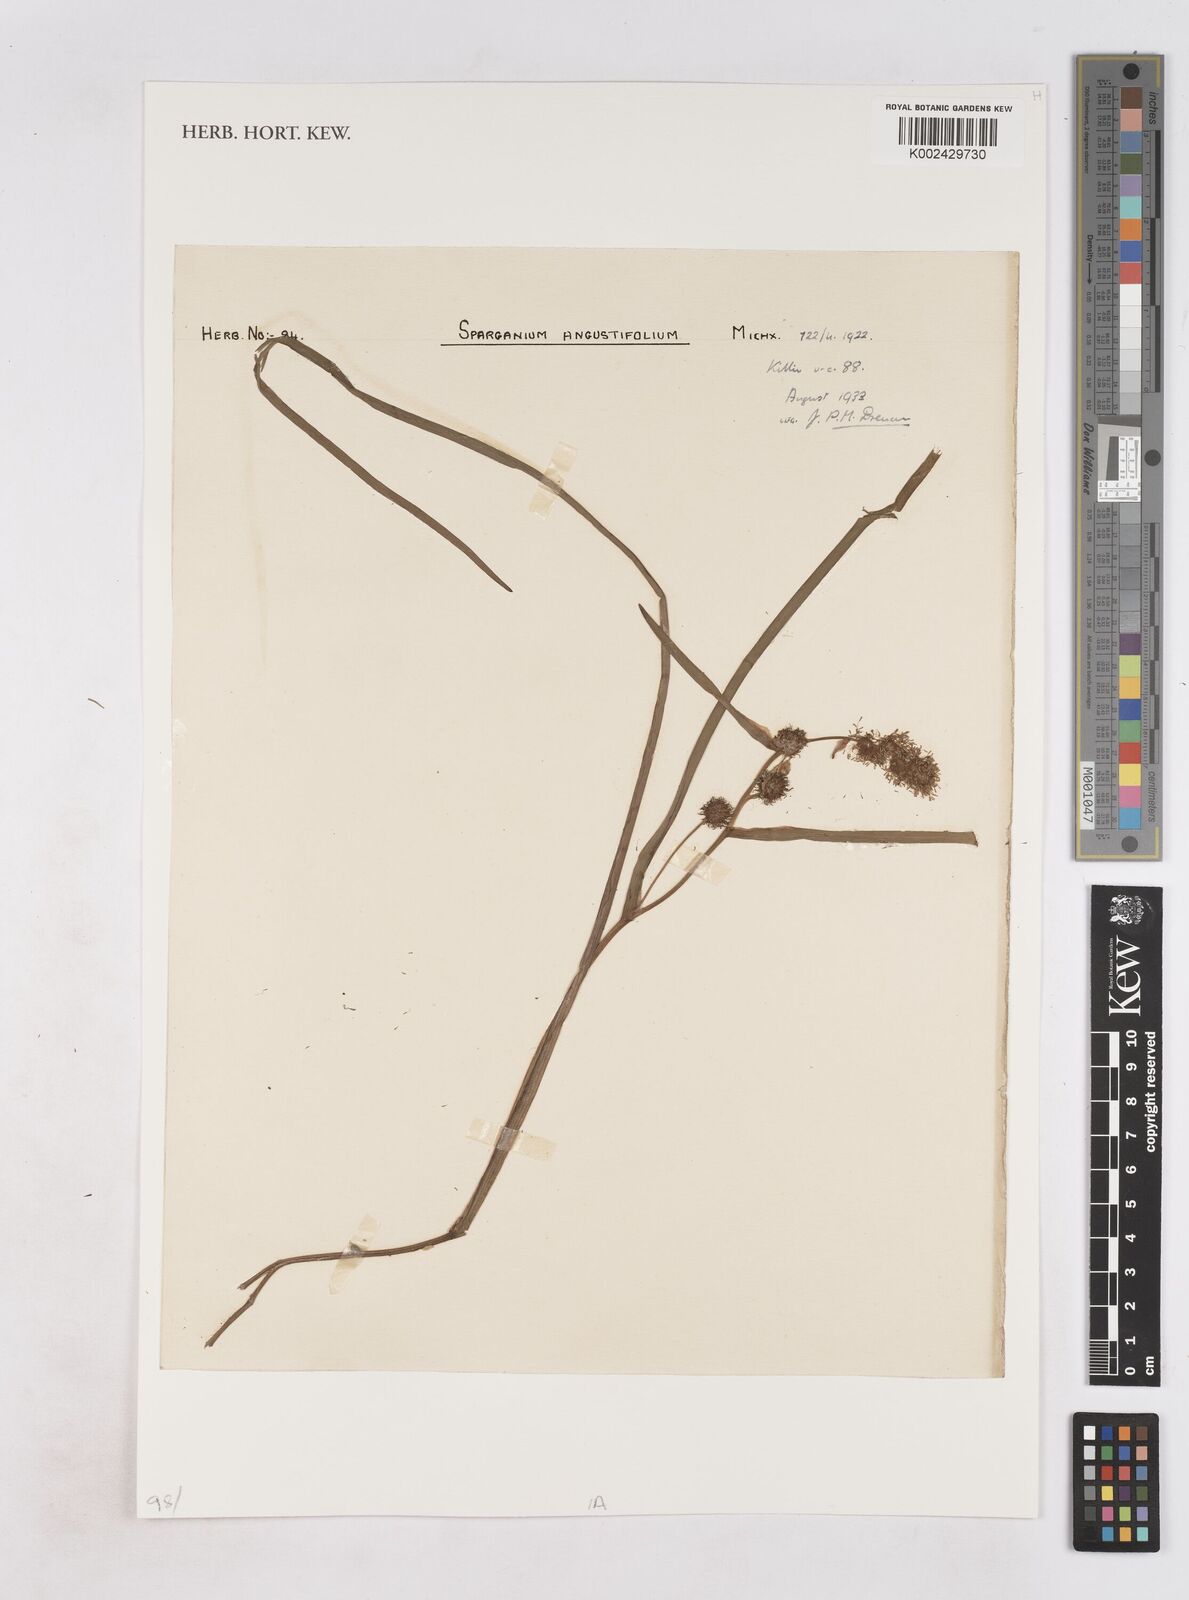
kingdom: Plantae
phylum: Tracheophyta
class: Liliopsida
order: Poales
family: Typhaceae
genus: Sparganium
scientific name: Sparganium angustifolium
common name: Floating bur-reed
